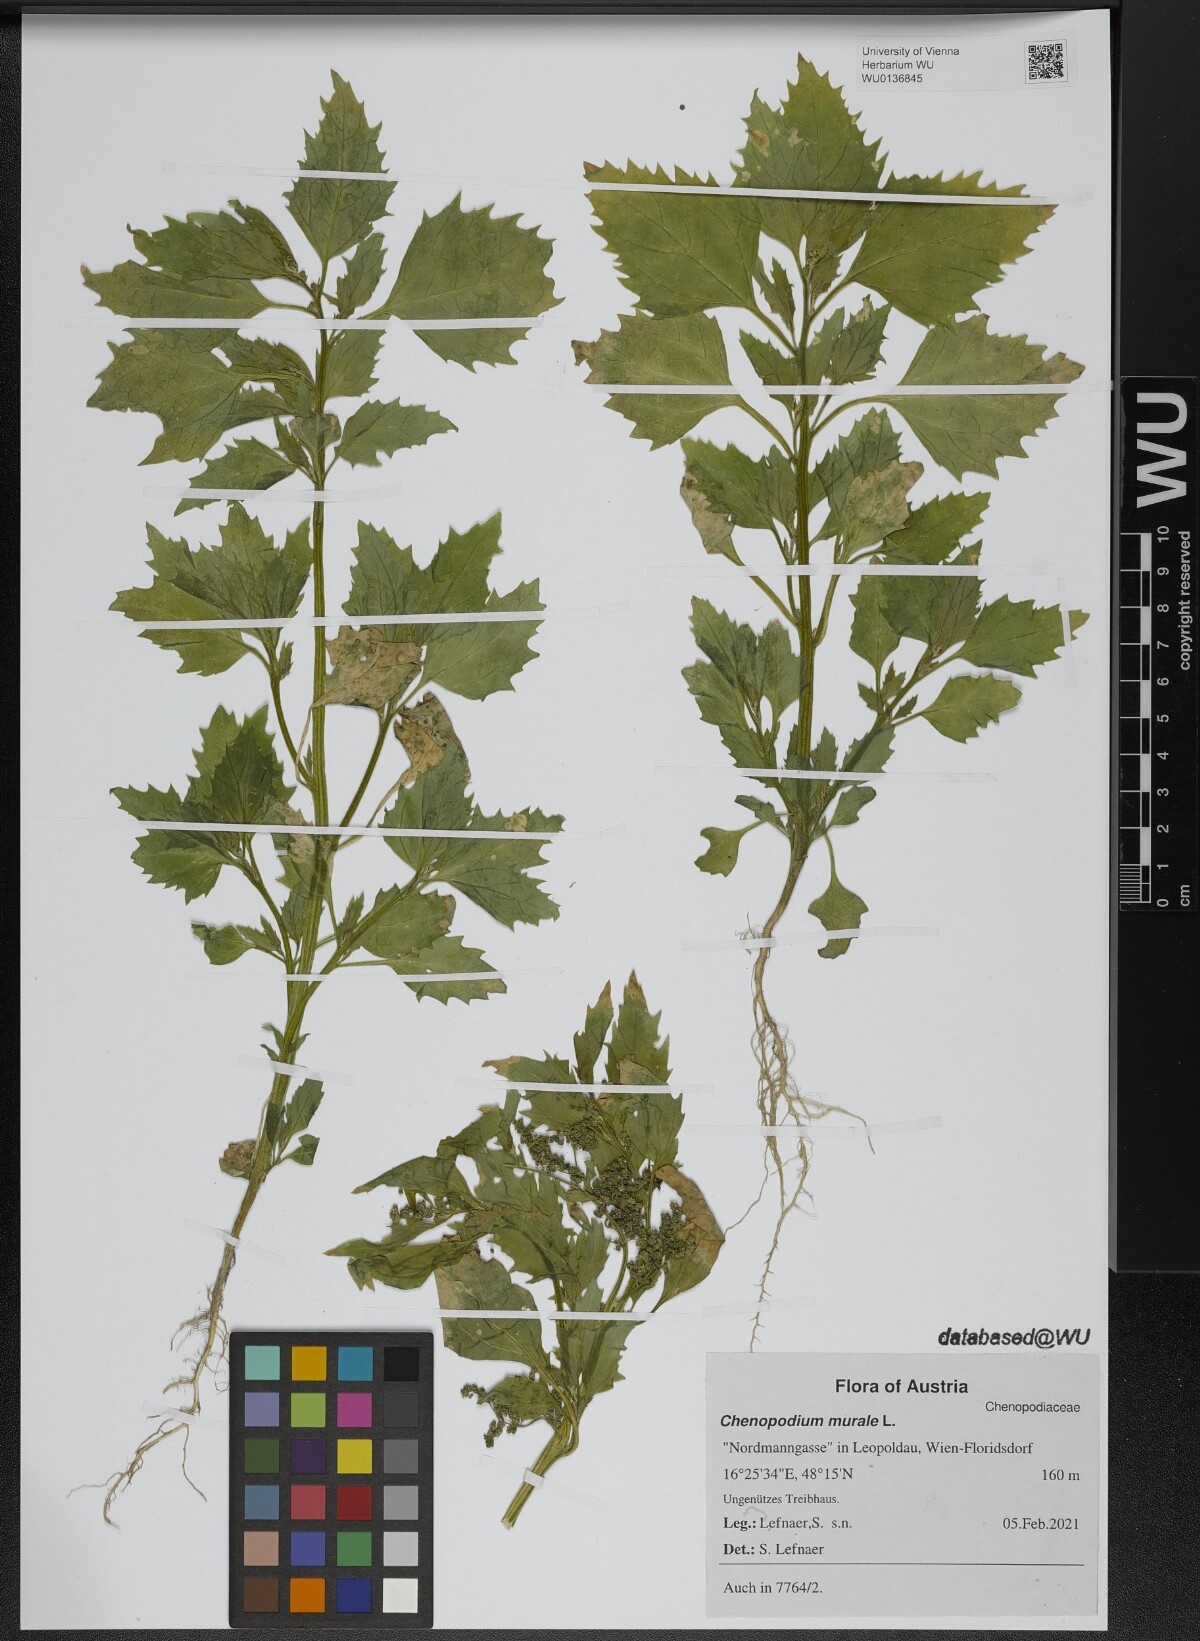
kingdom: Plantae
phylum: Tracheophyta
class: Magnoliopsida
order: Caryophyllales
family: Amaranthaceae
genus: Chenopodiastrum
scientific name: Chenopodiastrum murale
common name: Sowbane
